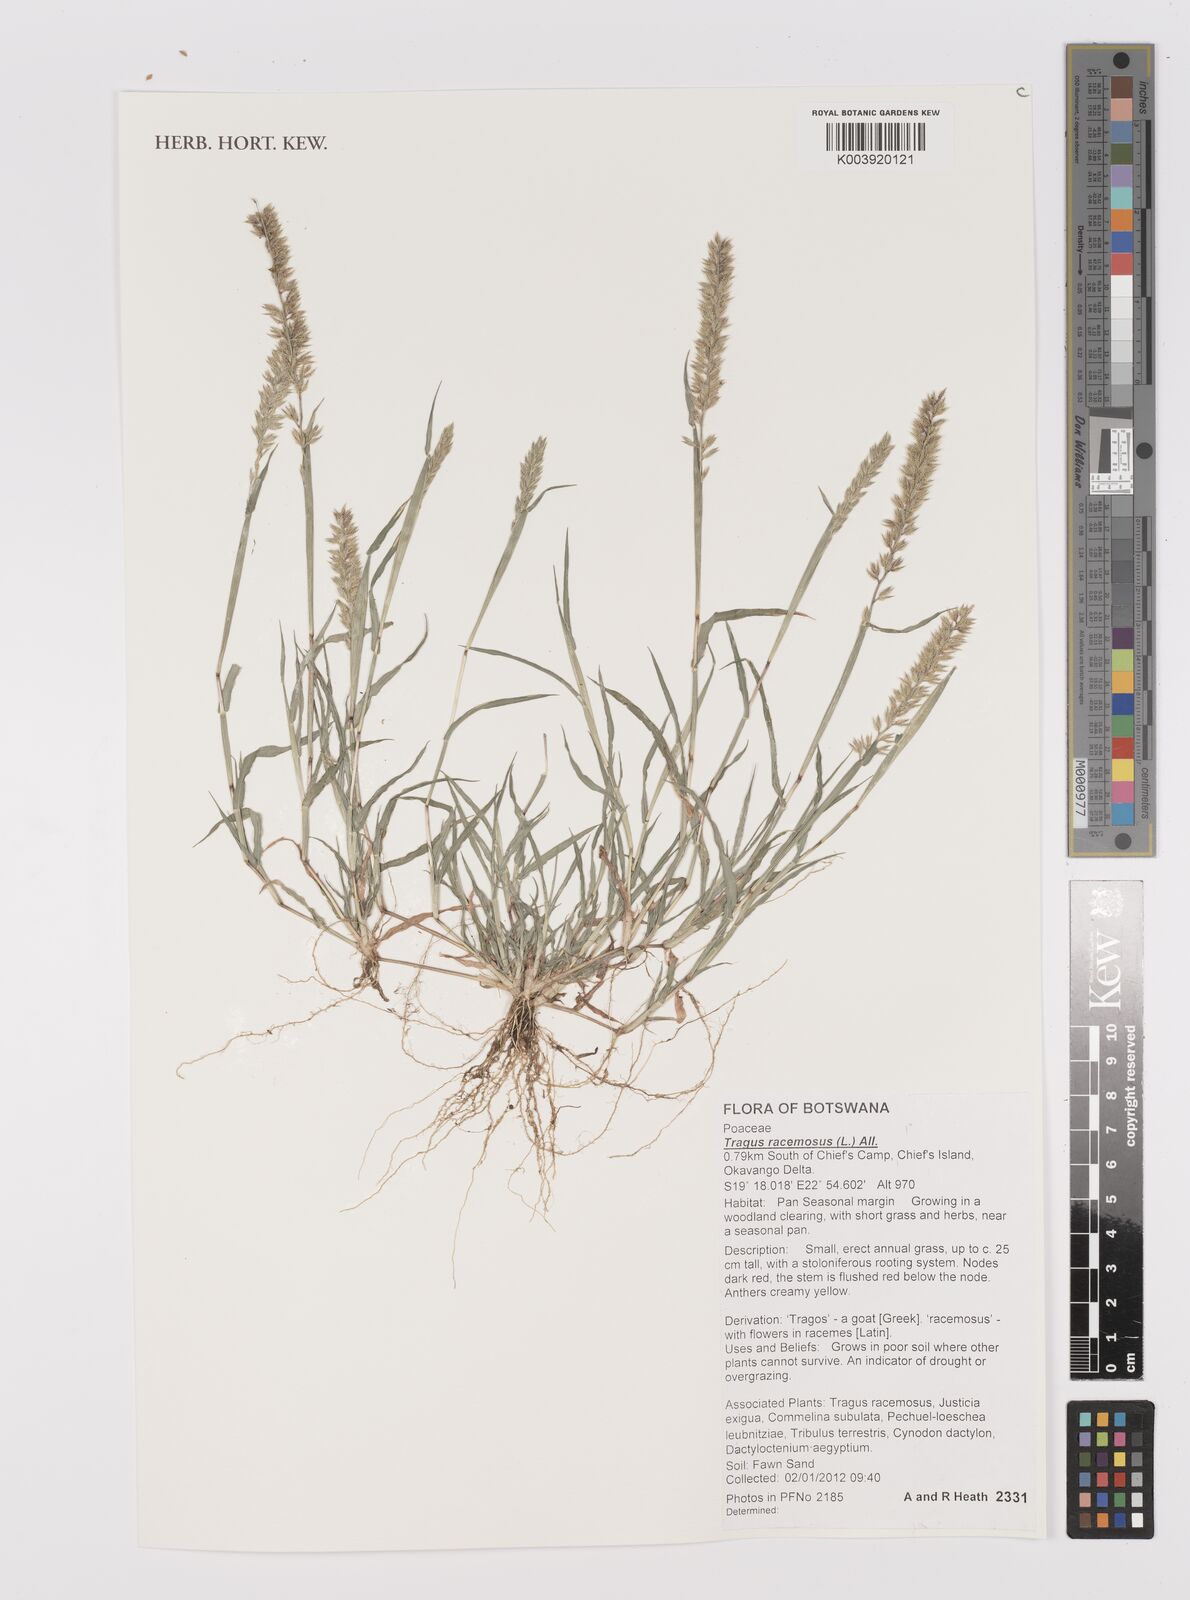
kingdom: Plantae
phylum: Tracheophyta
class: Liliopsida
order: Poales
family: Poaceae
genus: Tragus
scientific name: Tragus racemosus
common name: European bur-grass
